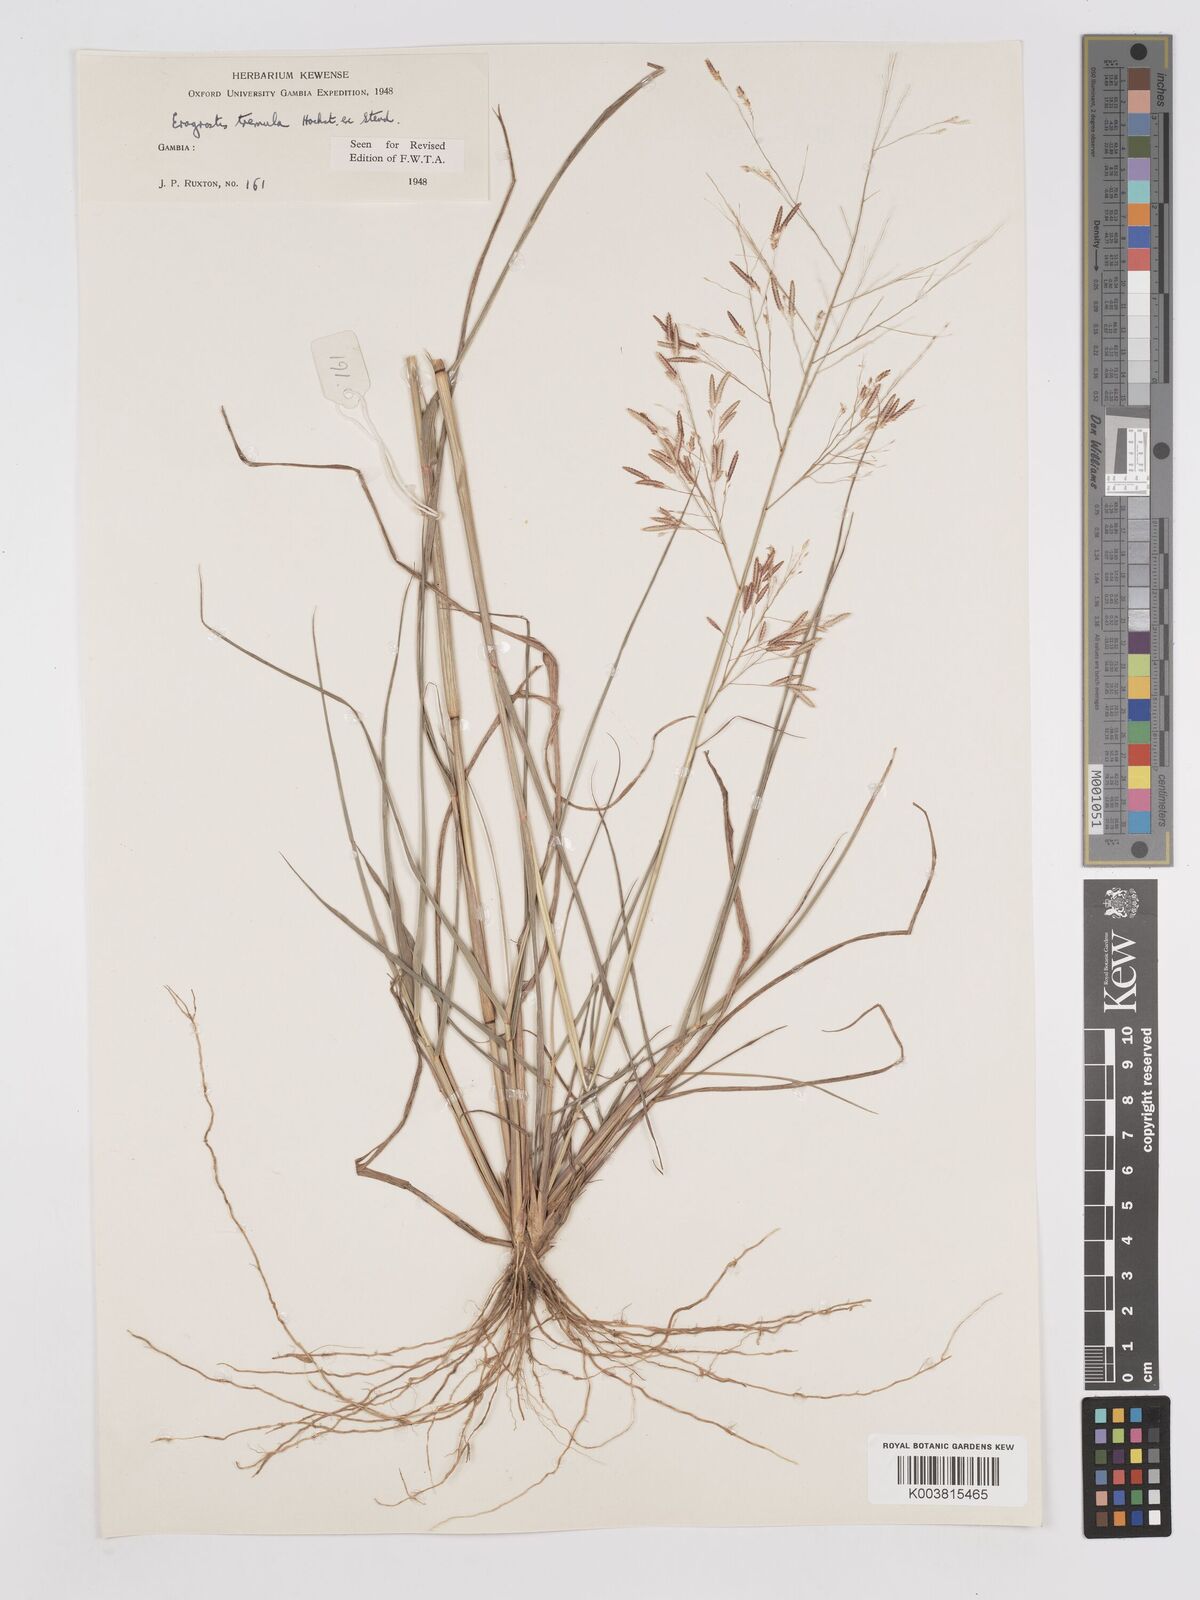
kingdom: Plantae
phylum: Tracheophyta
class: Liliopsida
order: Poales
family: Poaceae
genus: Eragrostis
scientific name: Eragrostis tremula
